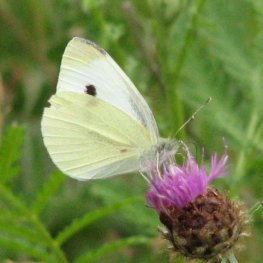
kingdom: Animalia
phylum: Arthropoda
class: Insecta
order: Lepidoptera
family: Pieridae
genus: Pieris
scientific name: Pieris rapae
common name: Cabbage White
